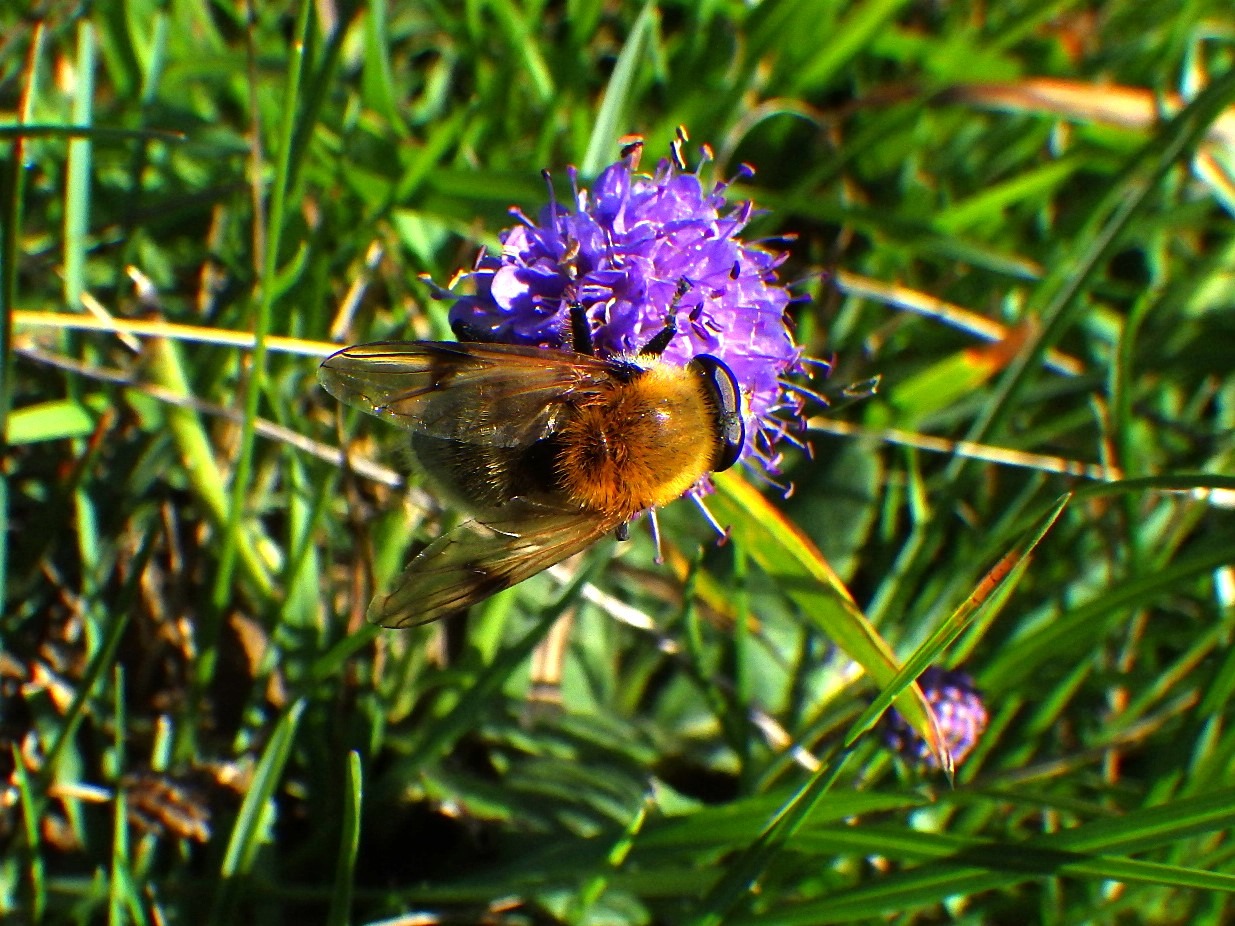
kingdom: Animalia
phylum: Arthropoda
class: Insecta
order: Diptera
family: Syrphidae
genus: Sericomyia
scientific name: Sericomyia superbiens
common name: Brun bjørnesvirreflue
